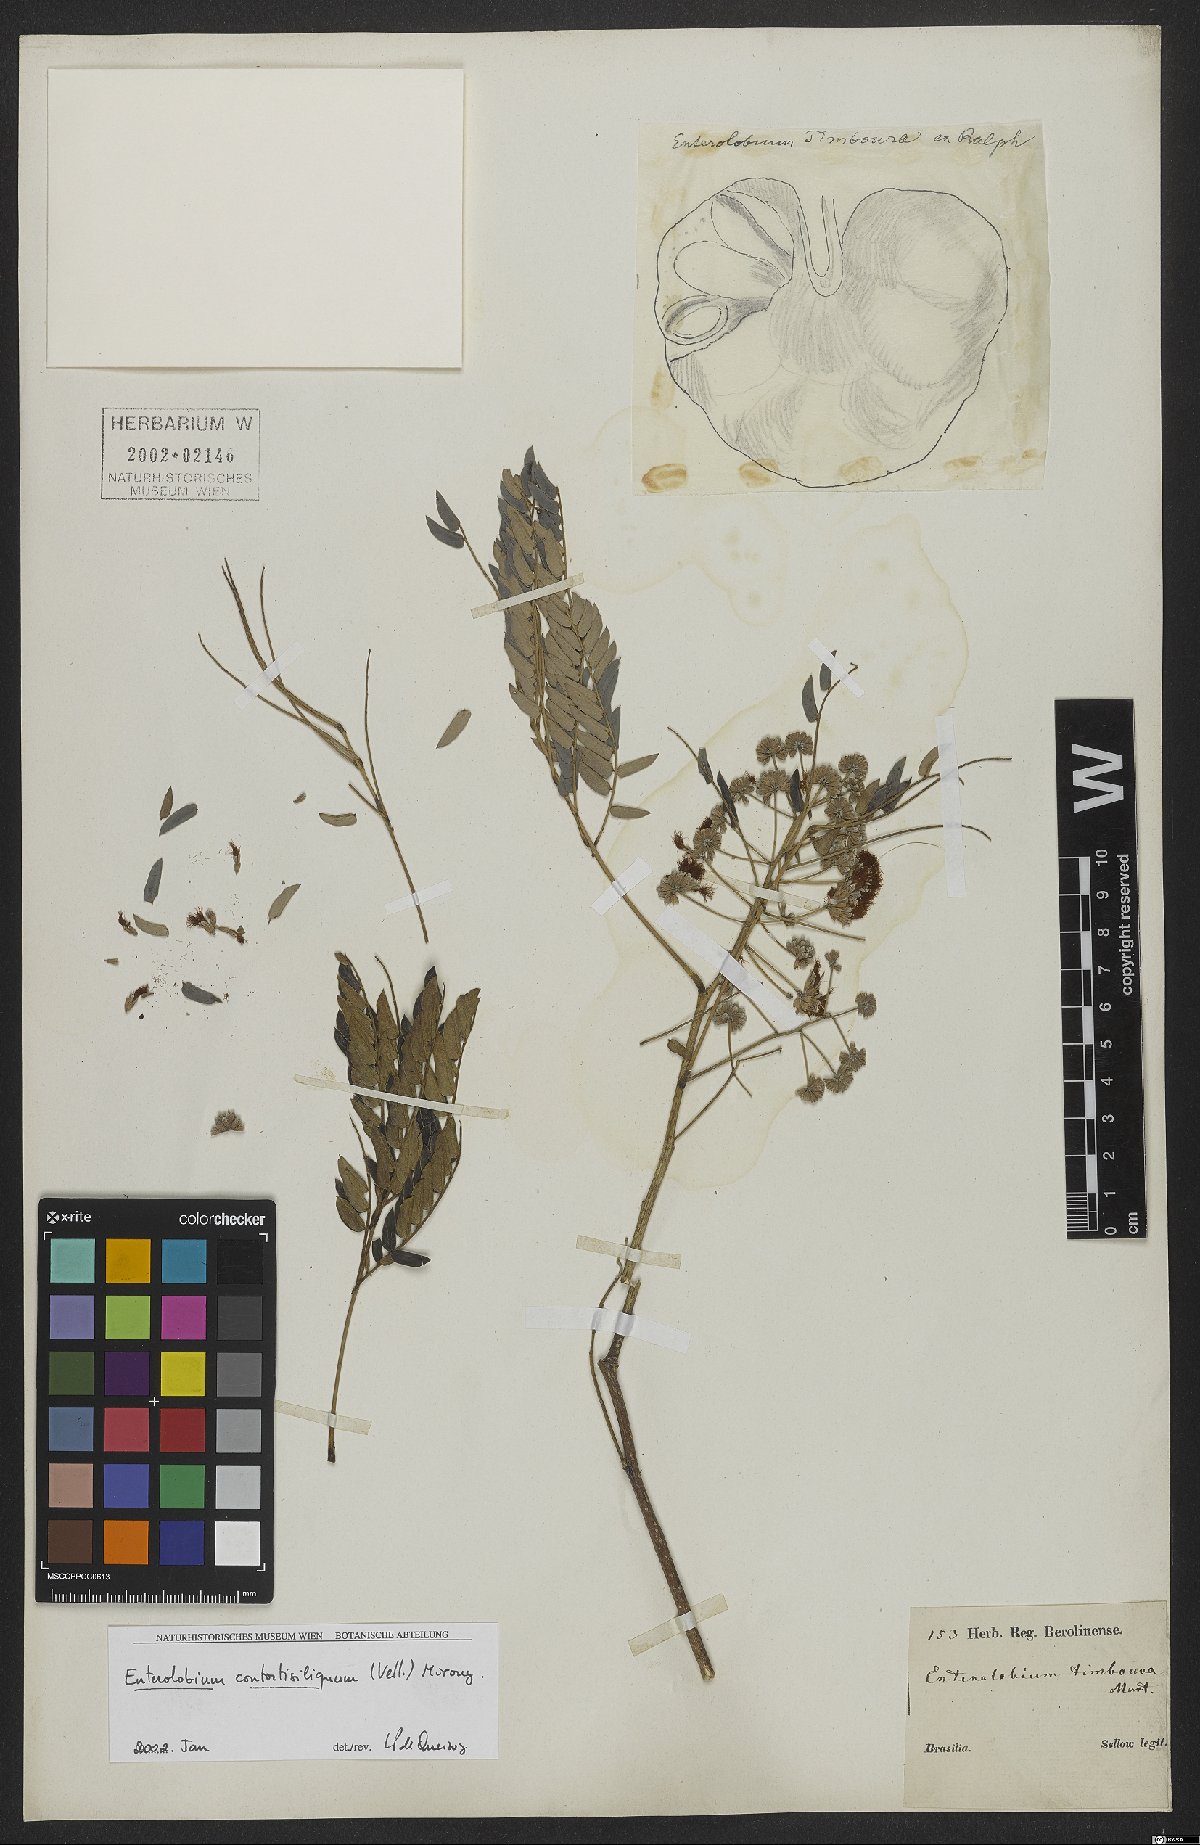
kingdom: Plantae
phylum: Tracheophyta
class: Magnoliopsida
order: Fabales
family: Fabaceae
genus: Enterolobium
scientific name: Enterolobium contortisiliquum
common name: Pacara earpod tree
